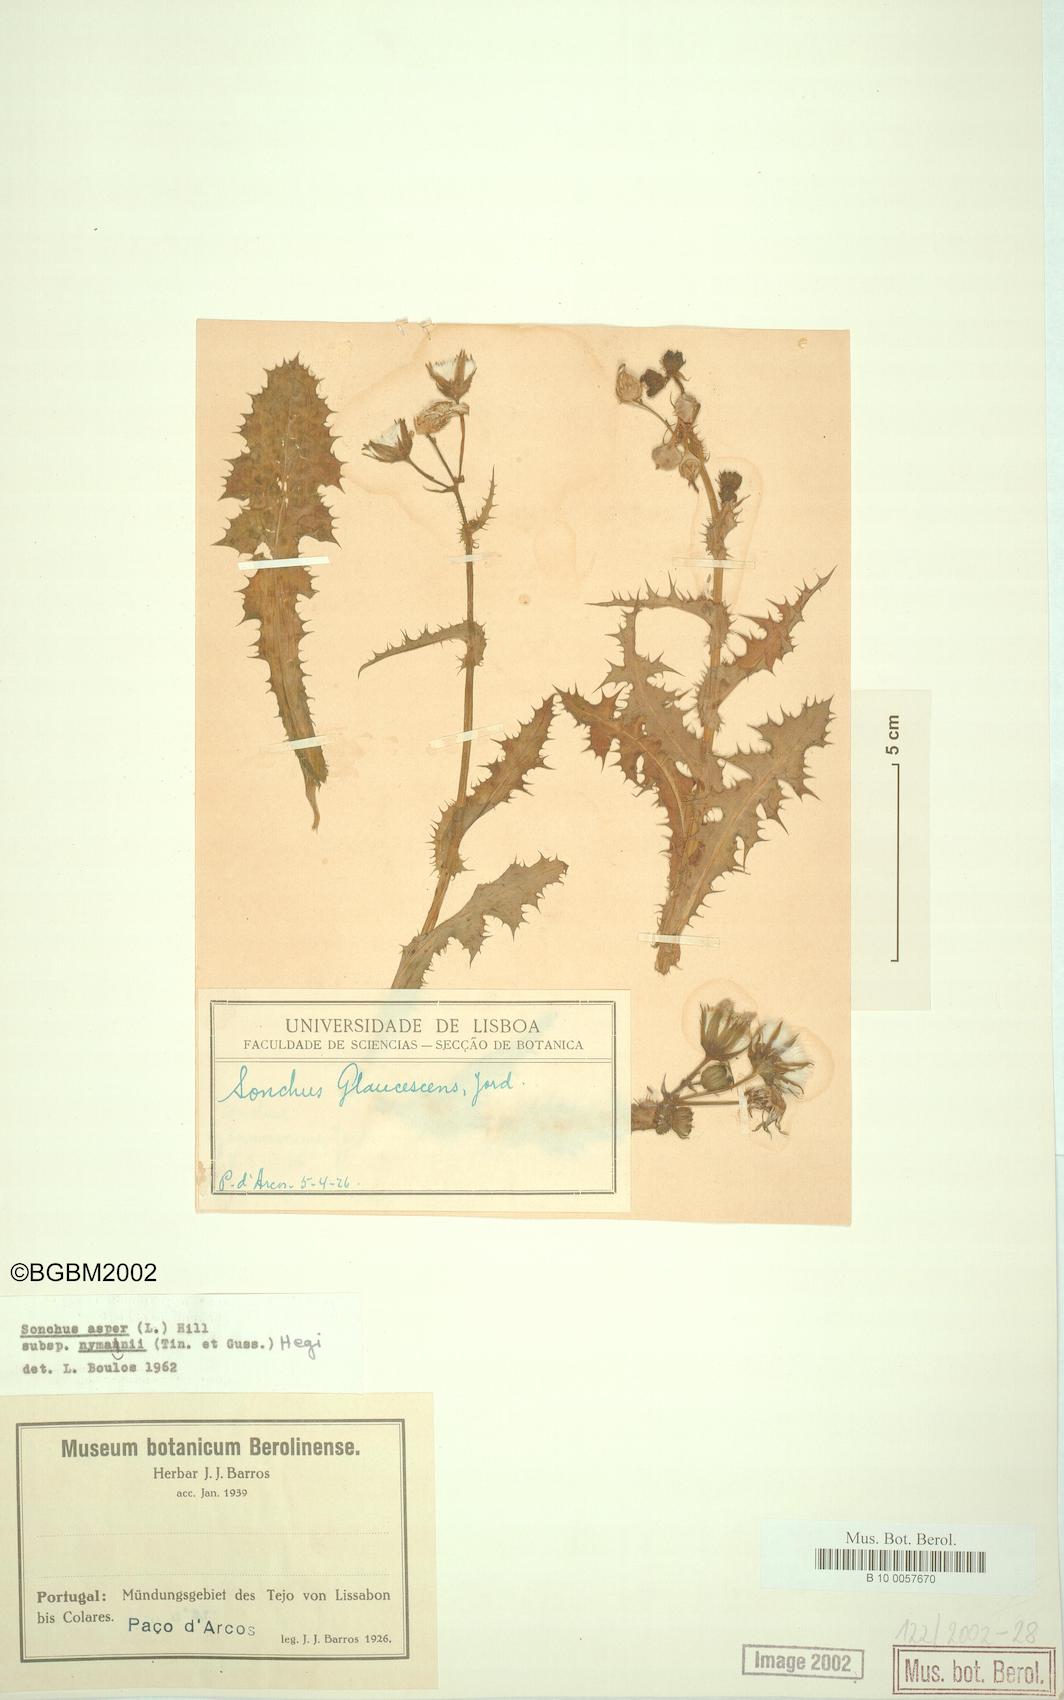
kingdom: Plantae
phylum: Tracheophyta
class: Magnoliopsida
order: Asterales
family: Asteraceae
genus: Sonchus
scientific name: Sonchus asper
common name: Prickly sow-thistle
